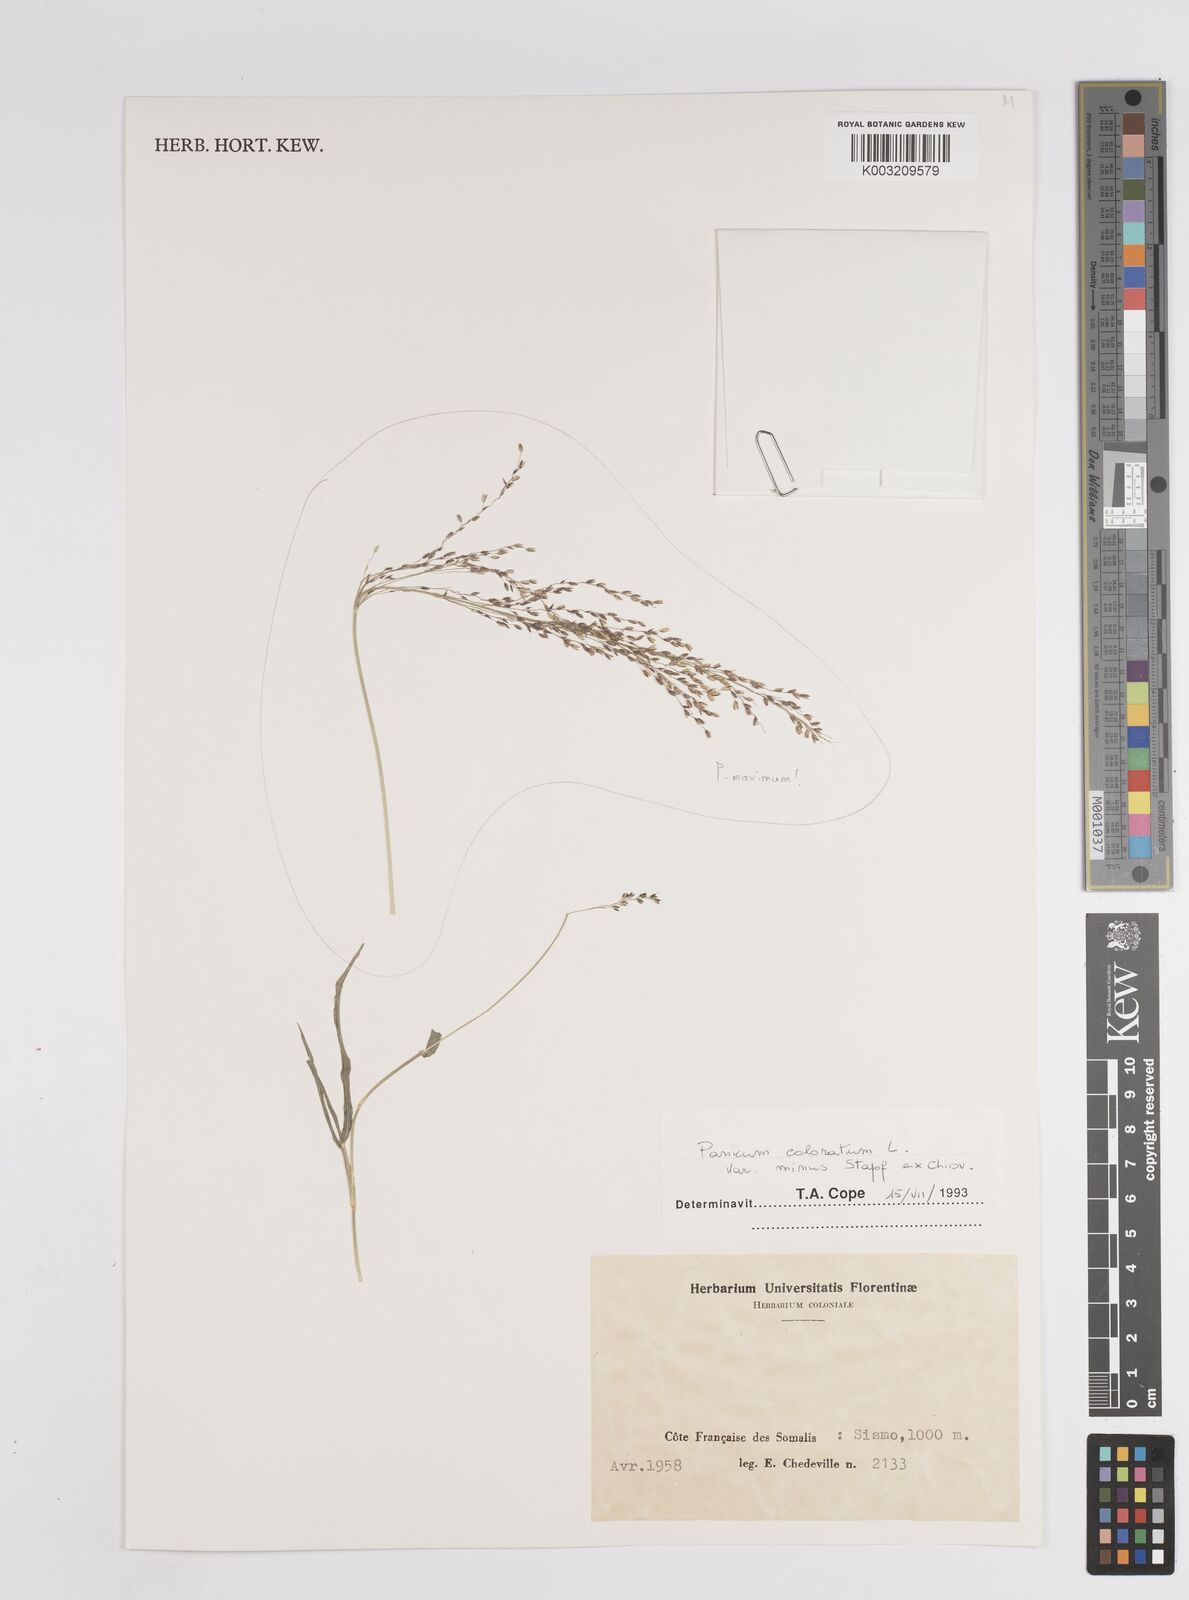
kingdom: Plantae
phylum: Tracheophyta
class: Liliopsida
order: Poales
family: Poaceae
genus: Panicum
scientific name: Panicum coloratum
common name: Kleingrass
